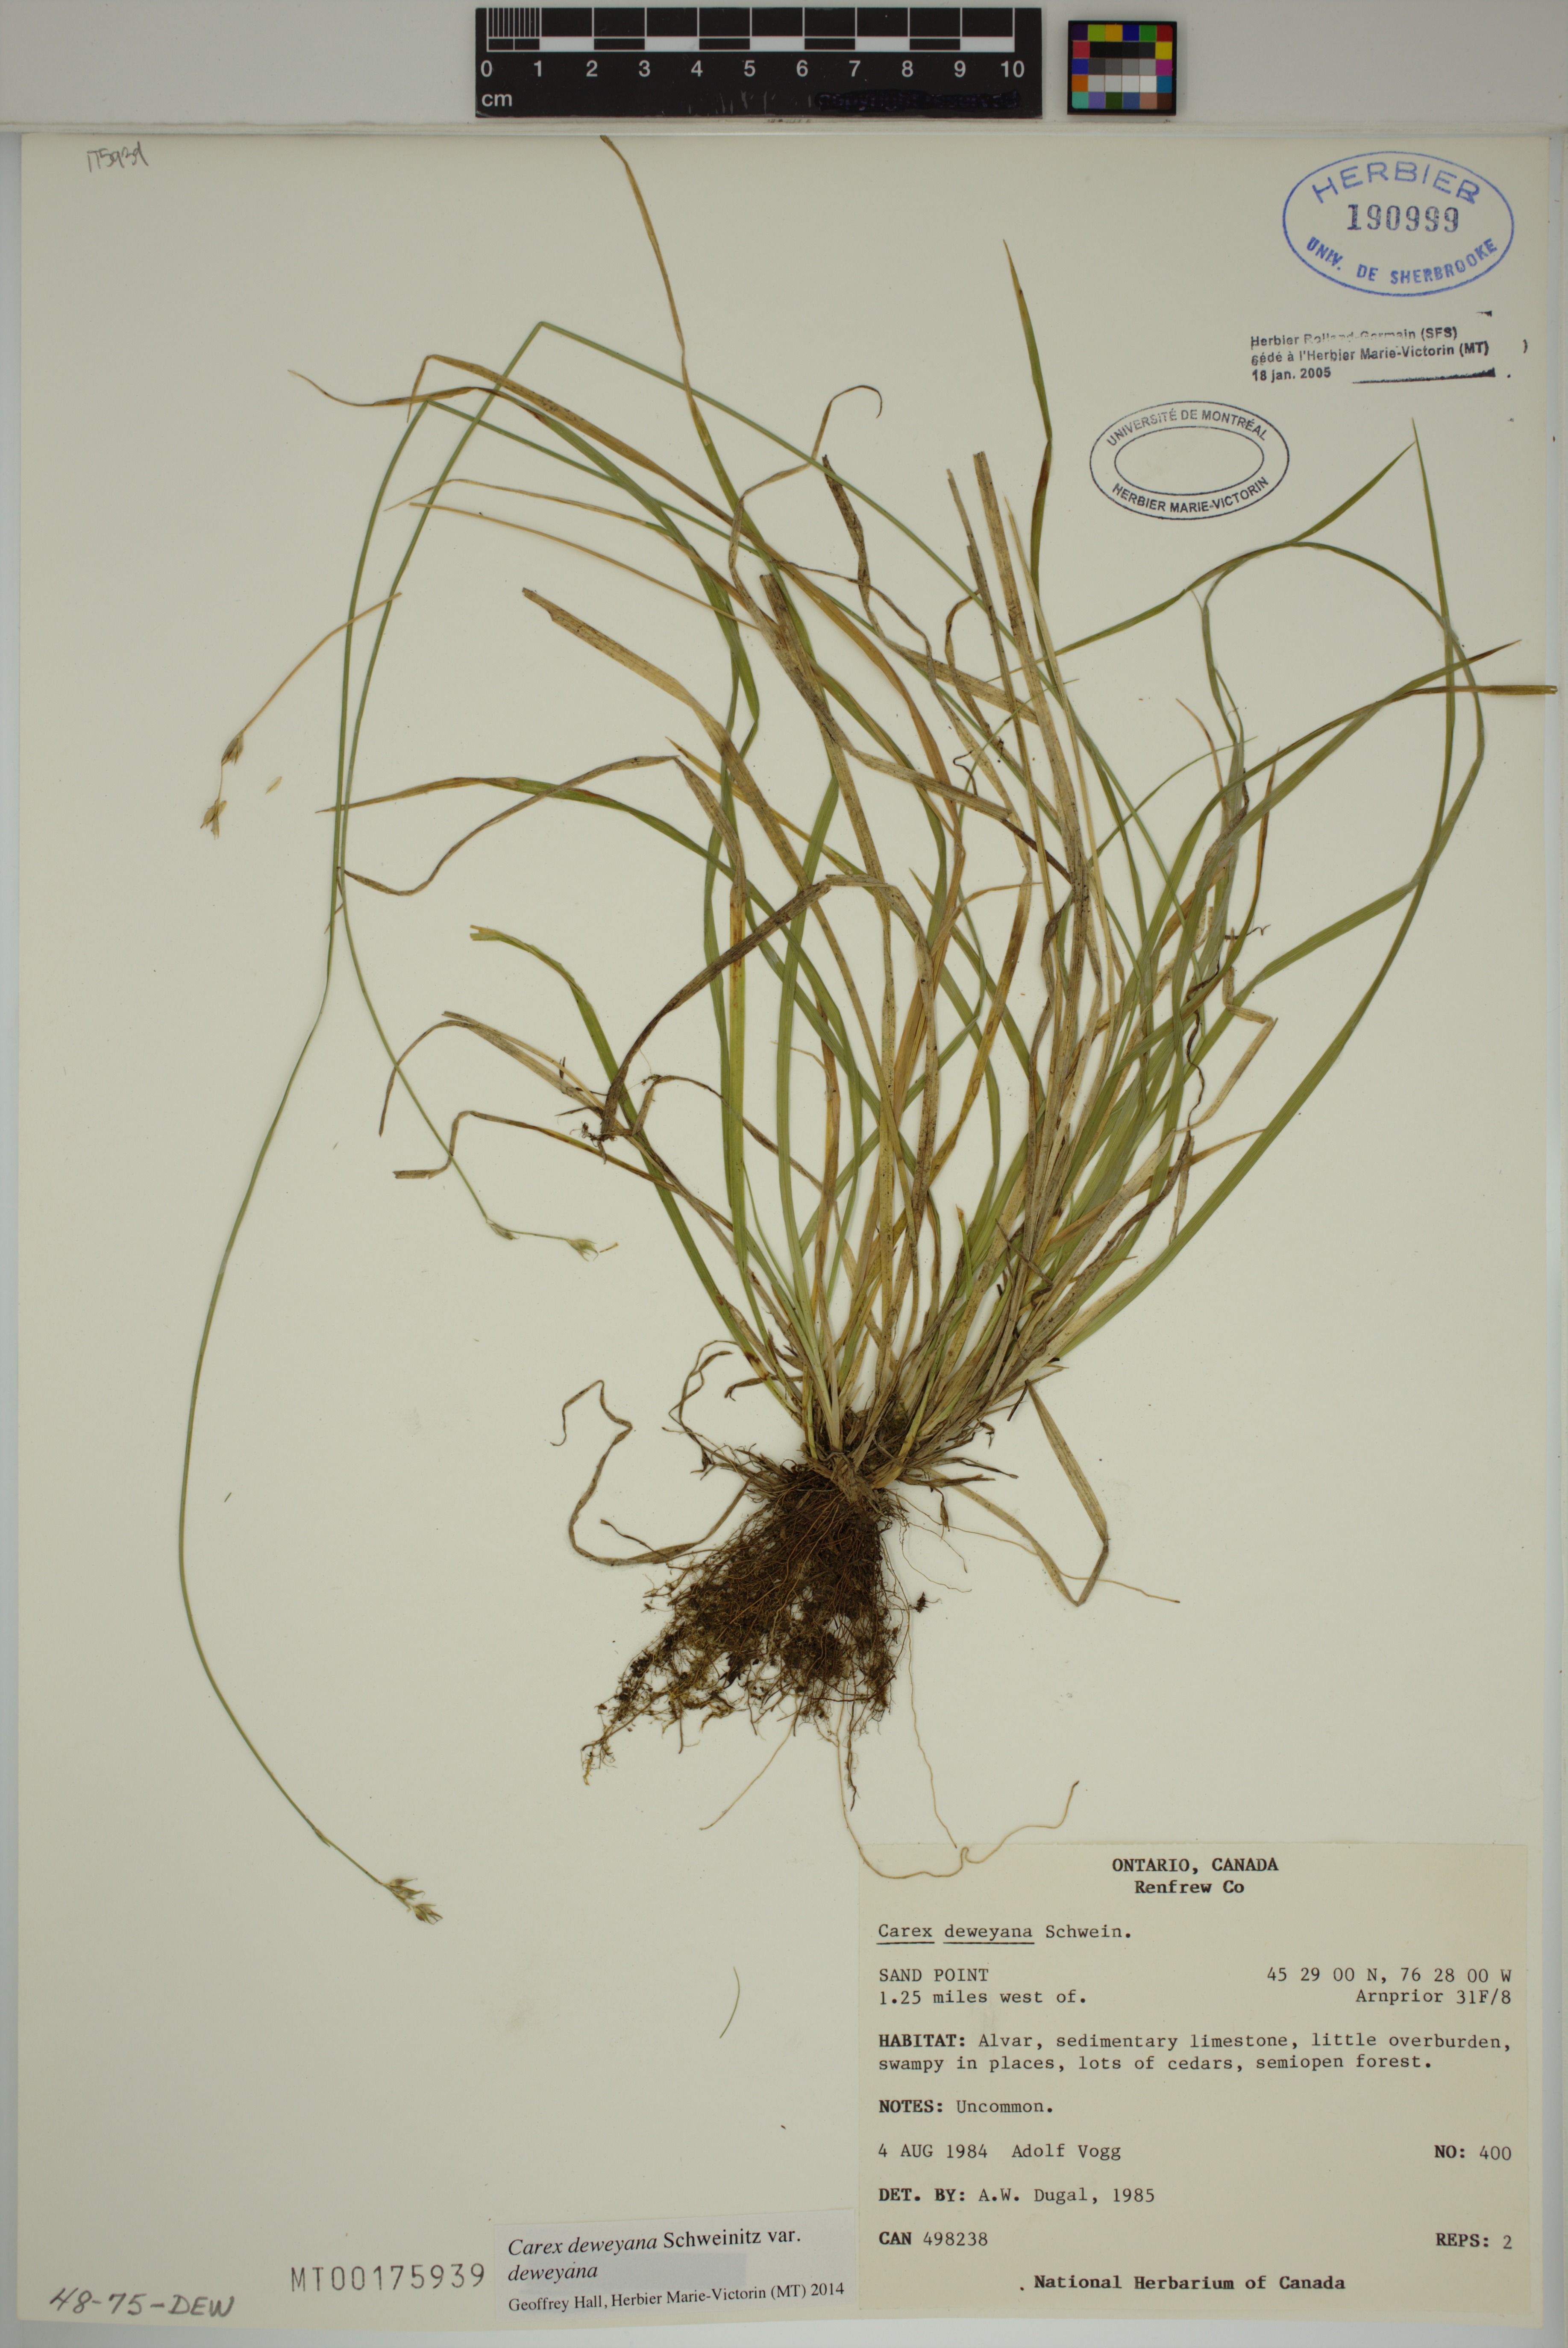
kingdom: Plantae
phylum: Tracheophyta
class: Liliopsida
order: Poales
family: Cyperaceae
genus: Carex
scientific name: Carex deweyana
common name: Dewey's sedge
